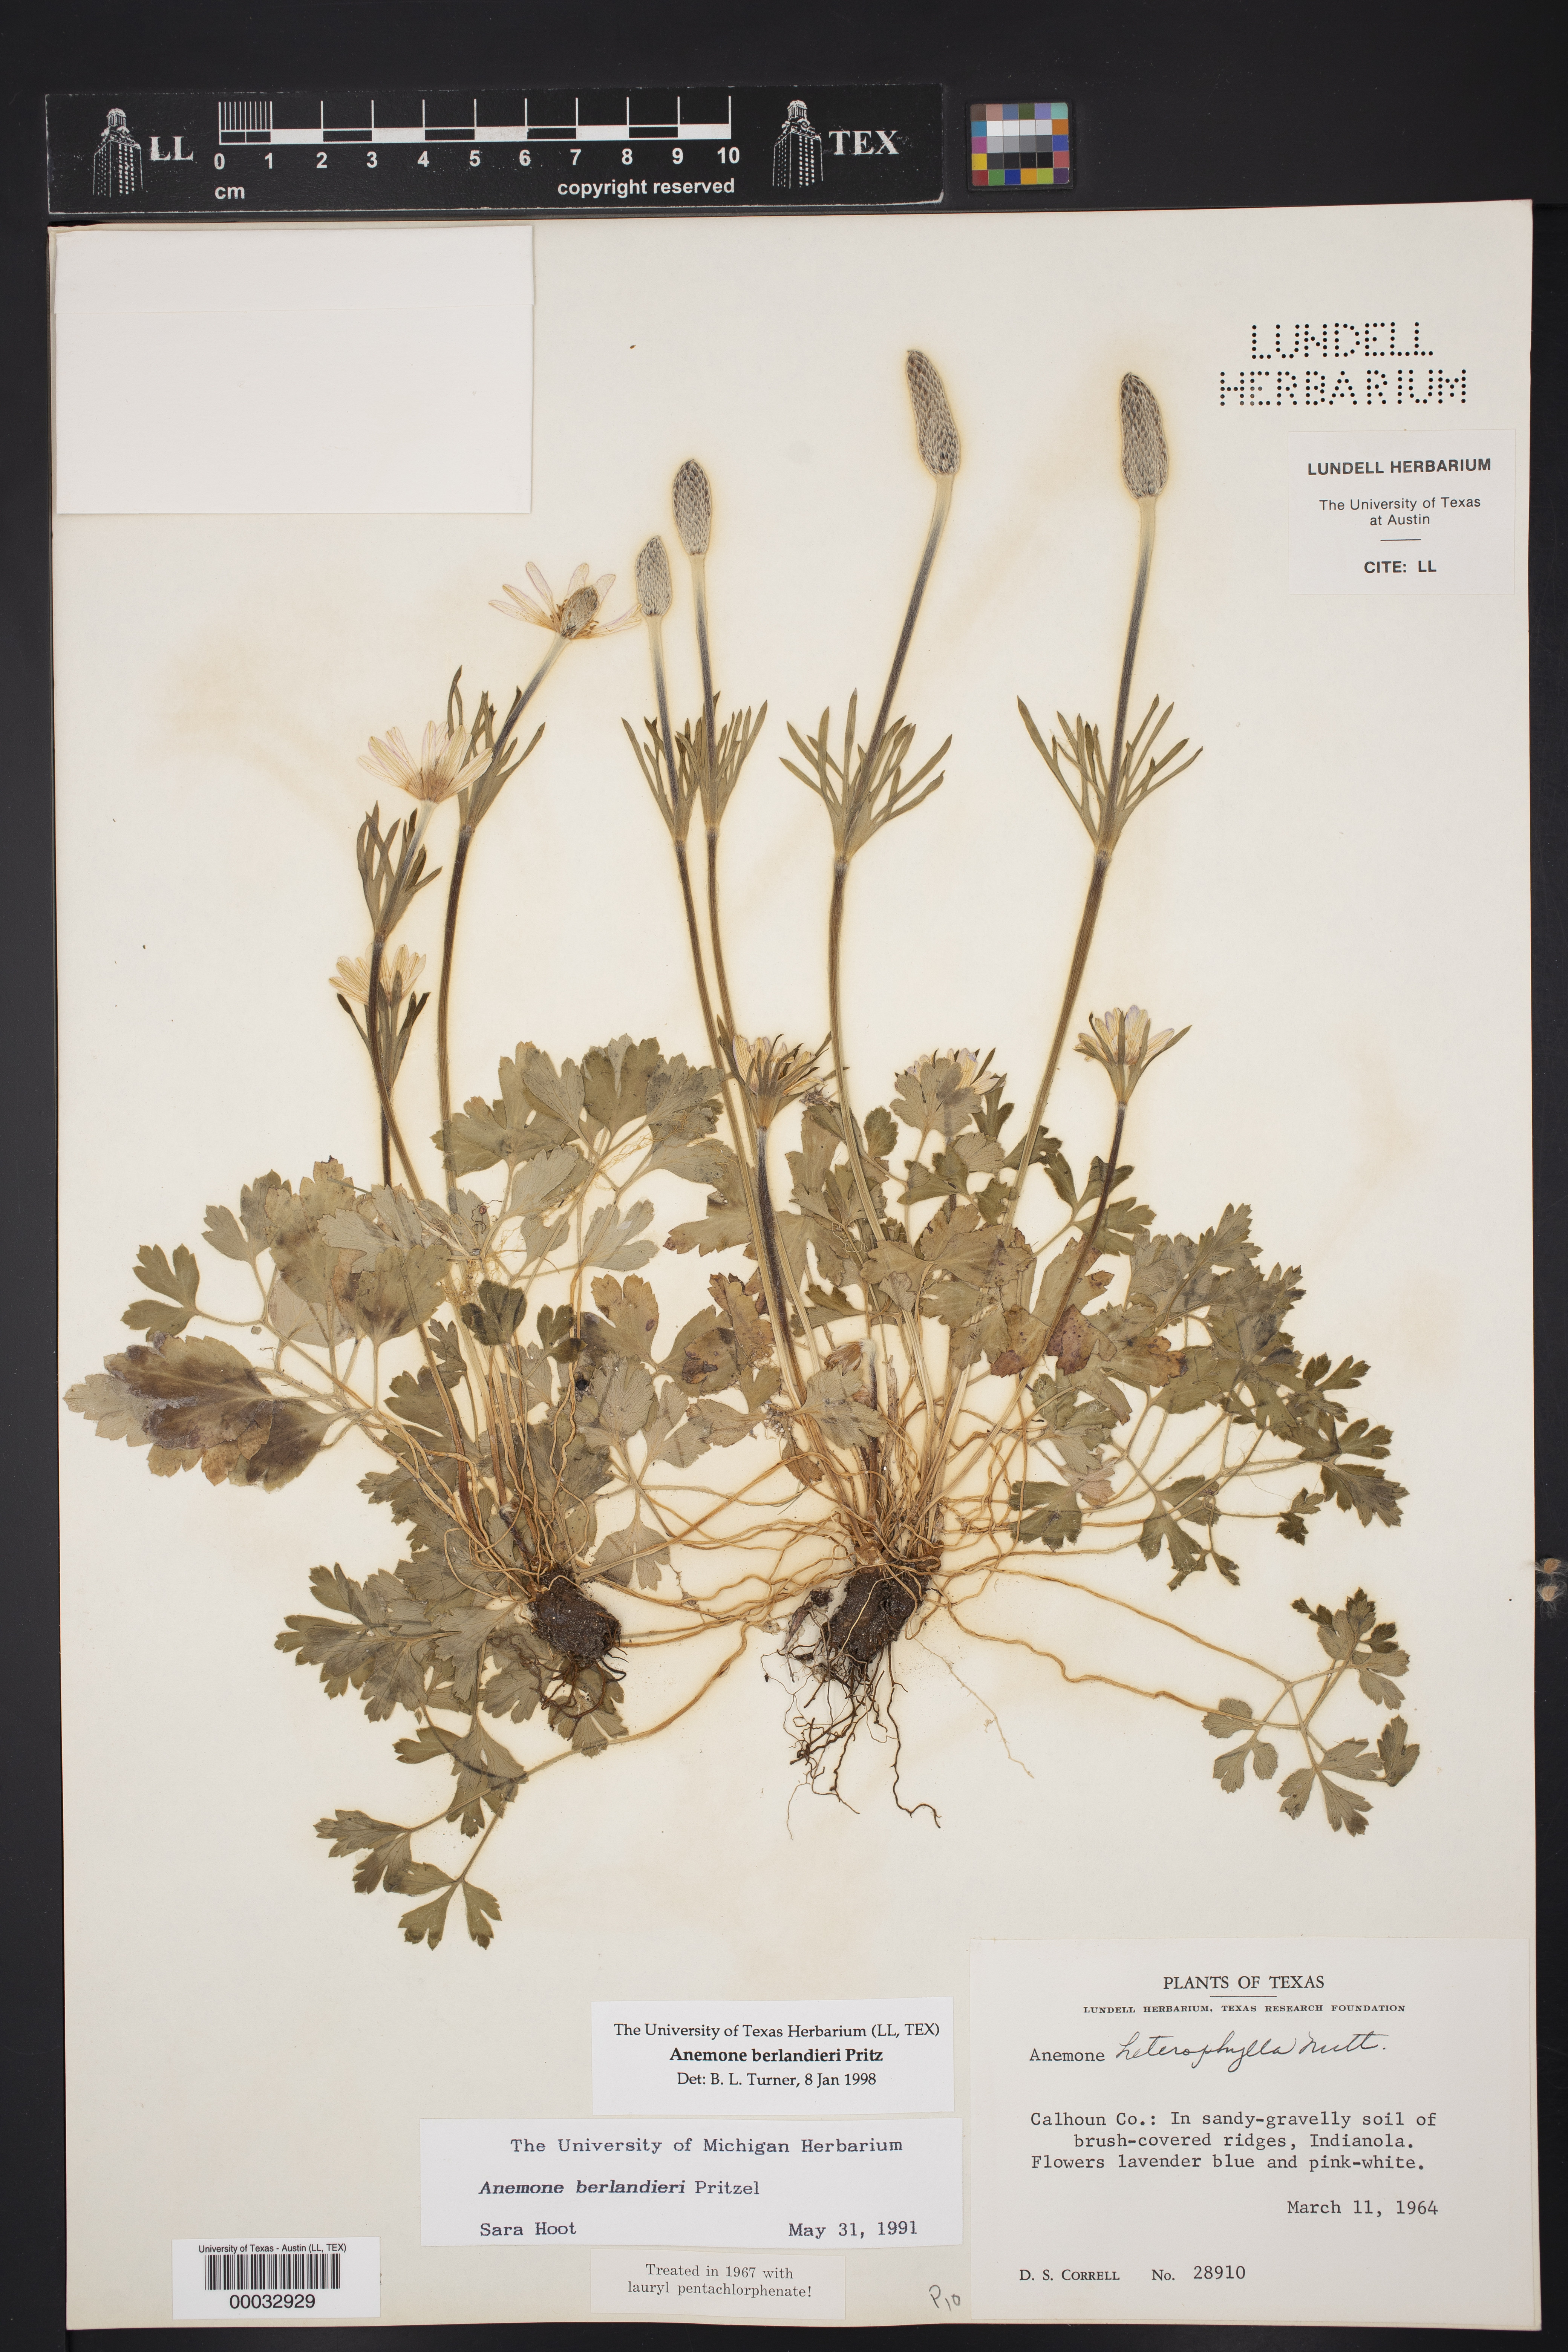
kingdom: Plantae
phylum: Tracheophyta
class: Magnoliopsida
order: Ranunculales
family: Ranunculaceae
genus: Anemone
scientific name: Anemone berlandieri
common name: Ten-petal anemone
